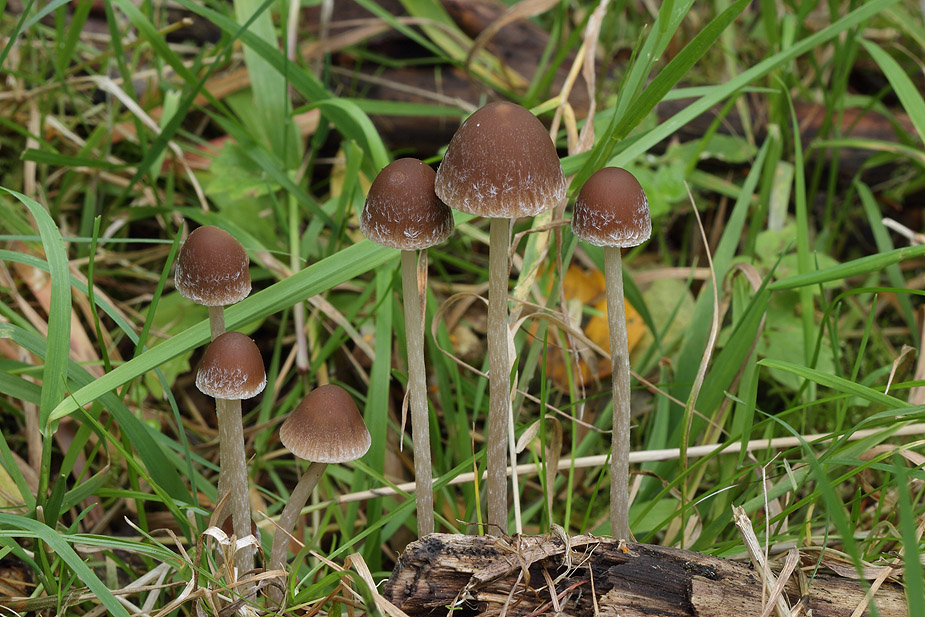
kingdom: Fungi
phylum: Basidiomycota
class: Agaricomycetes
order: Agaricales
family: Psathyrellaceae
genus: Psathyrella
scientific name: Psathyrella microrhiza
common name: rod-mørkhat
